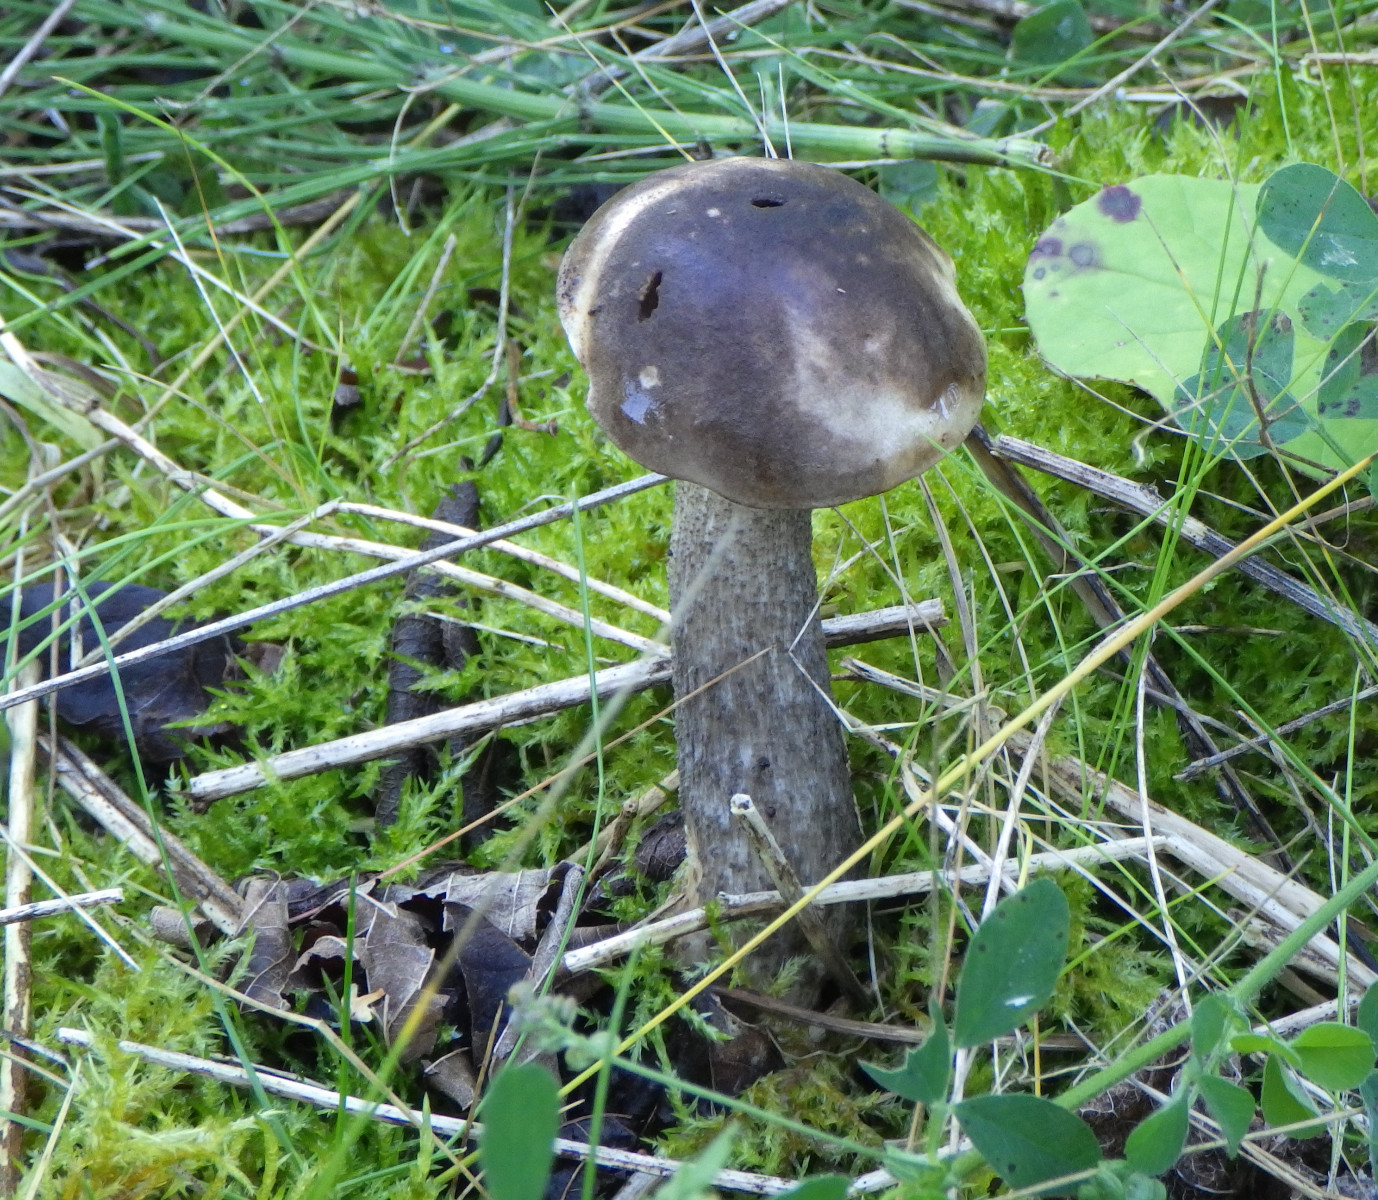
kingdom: Fungi
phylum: Basidiomycota
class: Agaricomycetes
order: Boletales
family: Boletaceae
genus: Leccinum
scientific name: Leccinum scabrum
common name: brun skælrørhat
